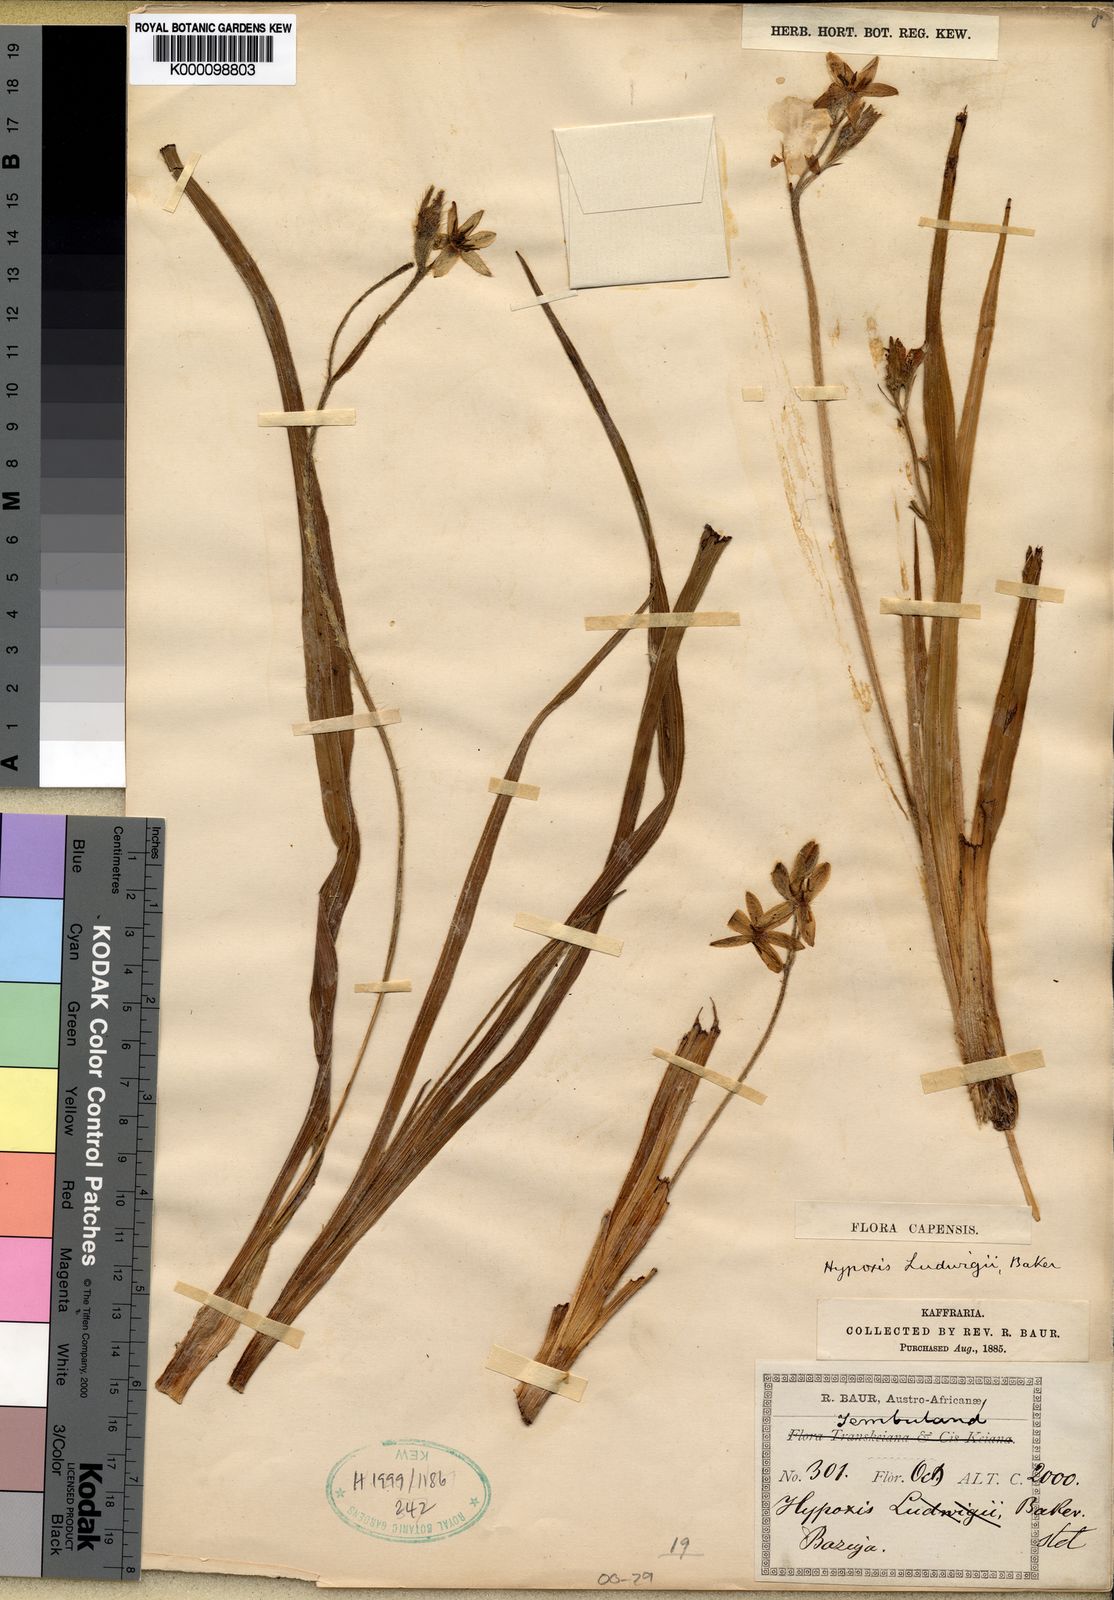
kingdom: Plantae
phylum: Tracheophyta
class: Liliopsida
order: Asparagales
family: Hypoxidaceae
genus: Hypoxis
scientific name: Hypoxis ludwigii
